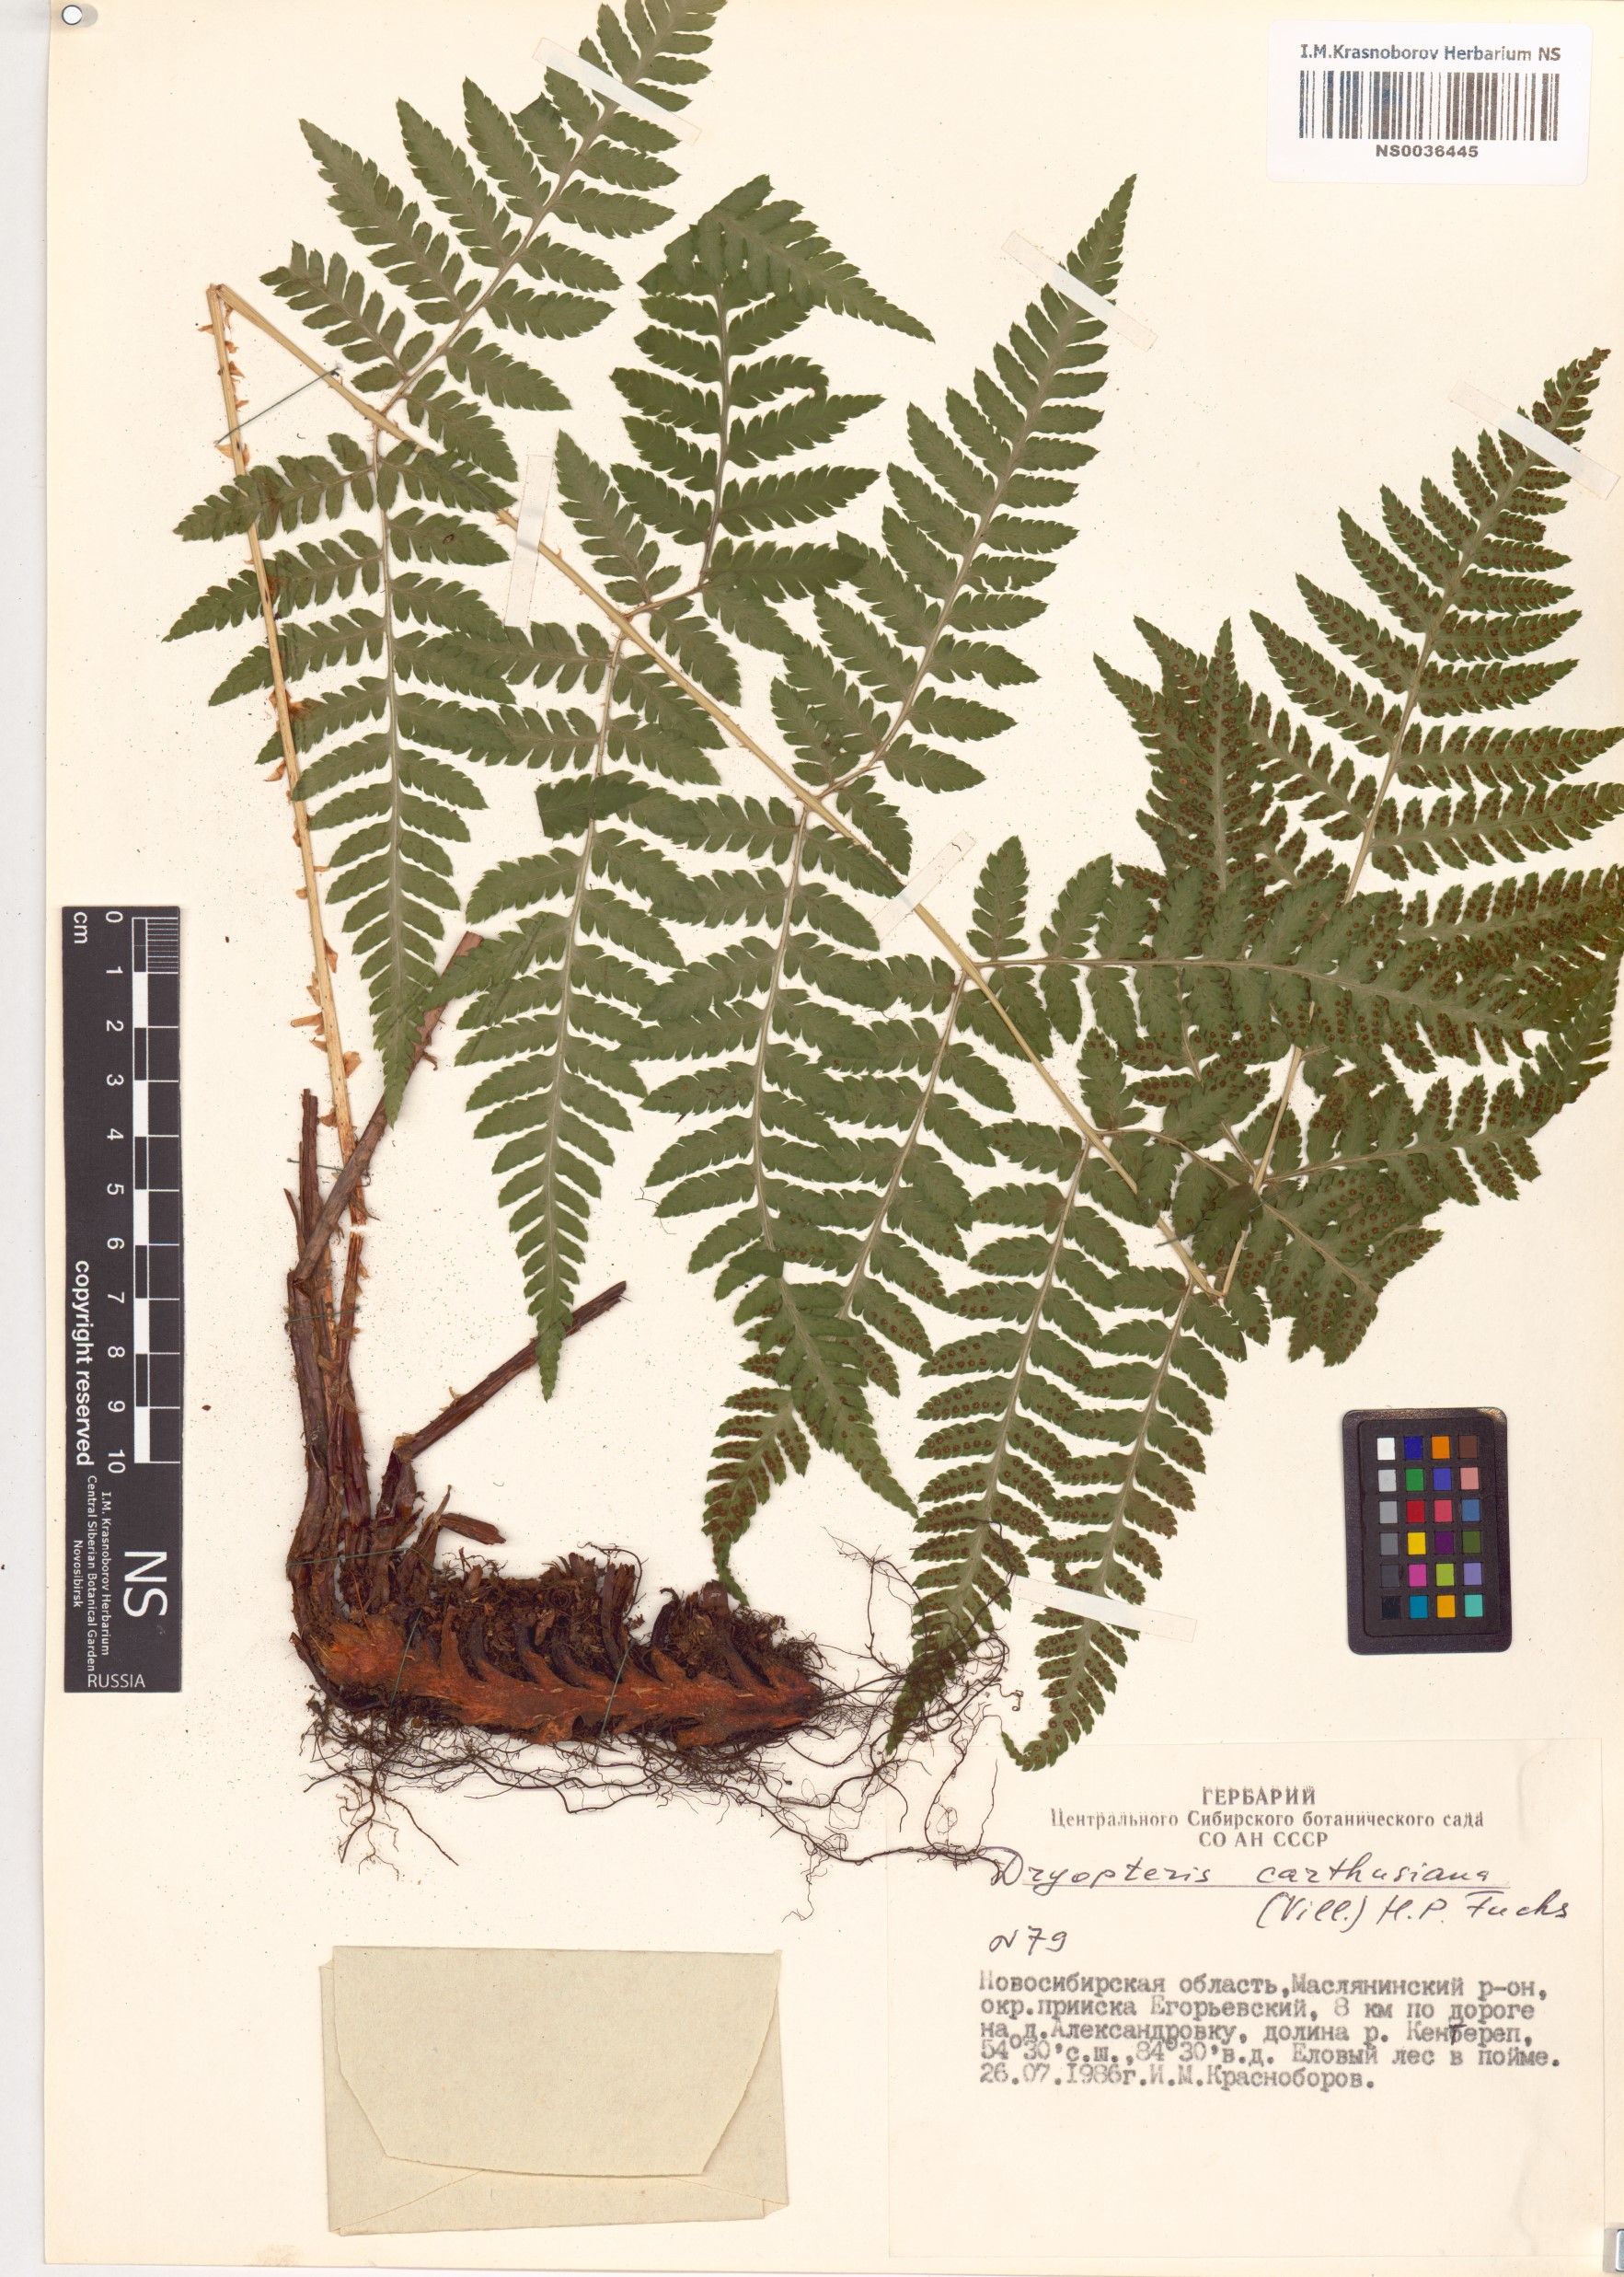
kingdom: Plantae
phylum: Tracheophyta
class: Polypodiopsida
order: Polypodiales
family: Dryopteridaceae
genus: Dryopteris
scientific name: Dryopteris carthusiana
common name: Narrow buckler-fern
